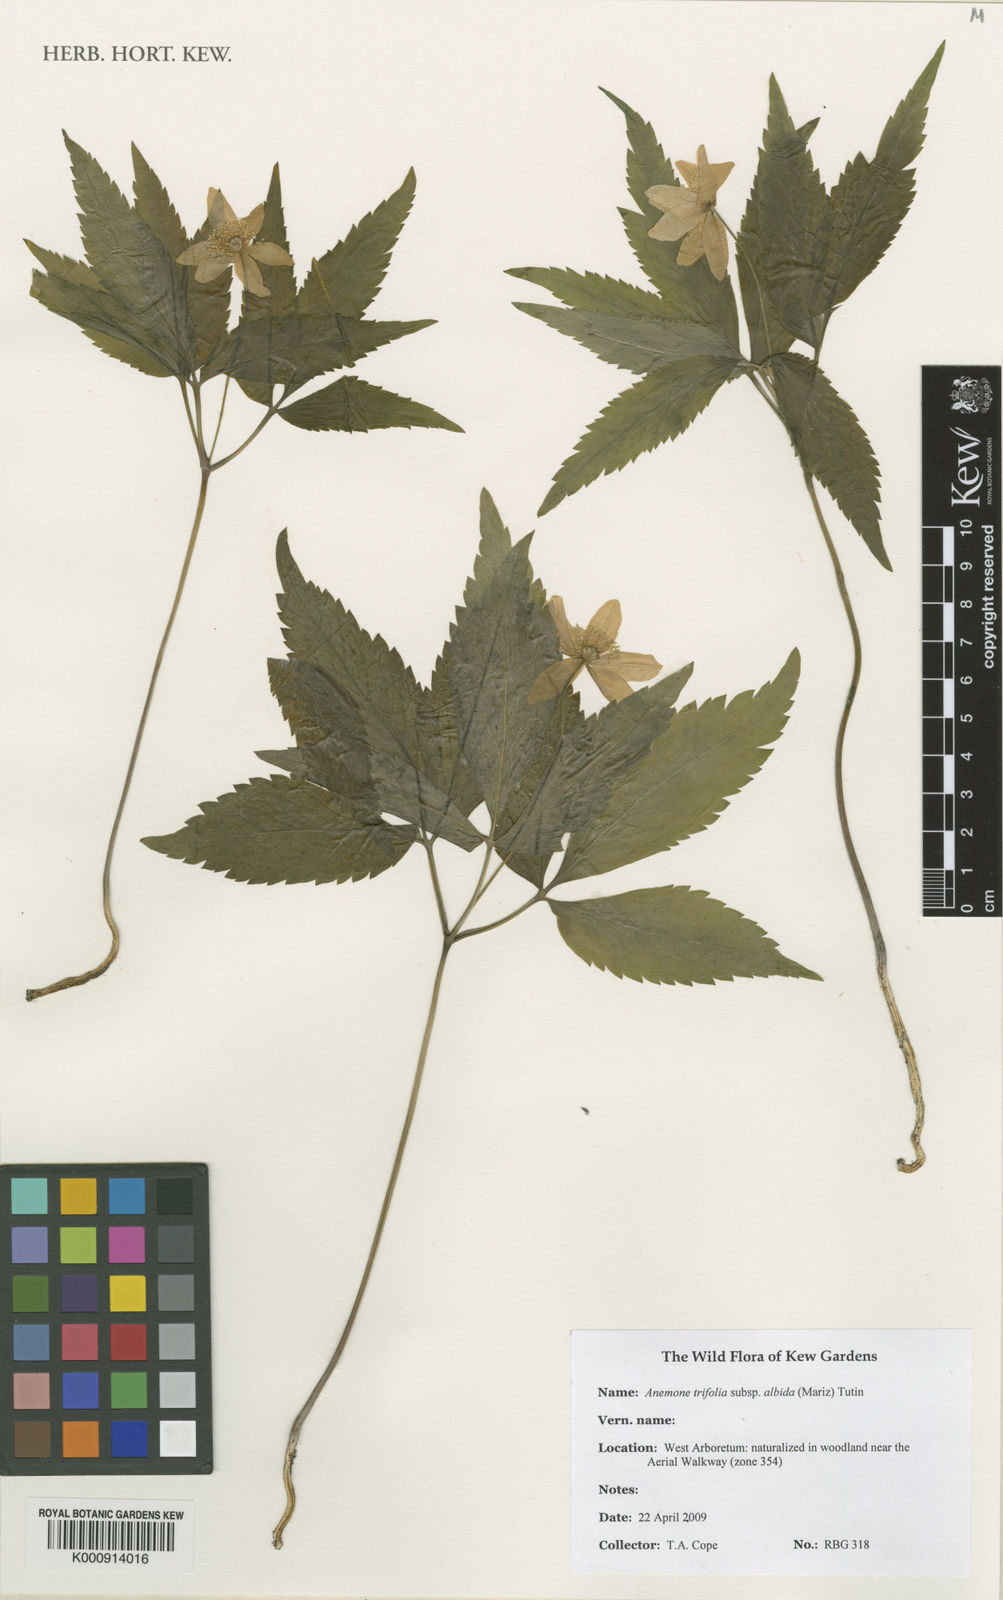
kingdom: Plantae
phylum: Tracheophyta
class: Magnoliopsida
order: Ranunculales
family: Ranunculaceae
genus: Anemone
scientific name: Anemone trifolia
